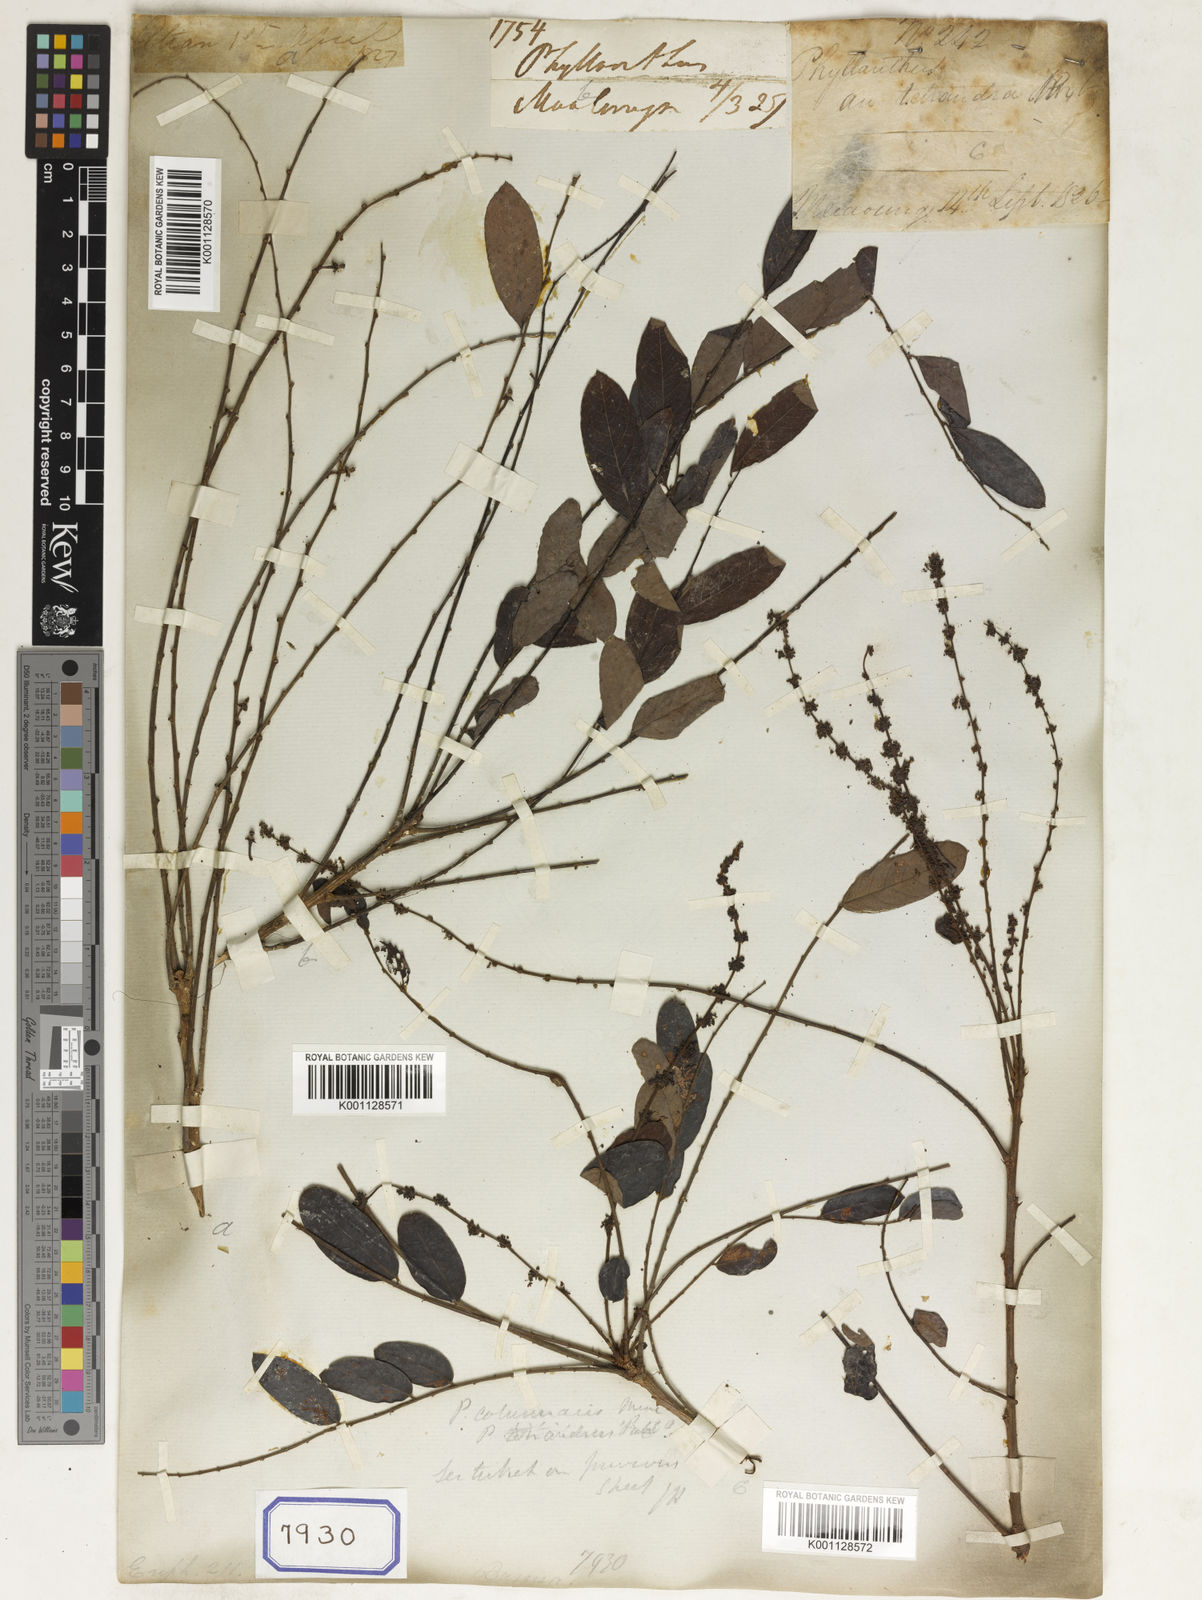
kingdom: Plantae
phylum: Tracheophyta
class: Magnoliopsida
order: Malpighiales
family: Euphorbiaceae
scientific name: Euphorbiaceae
